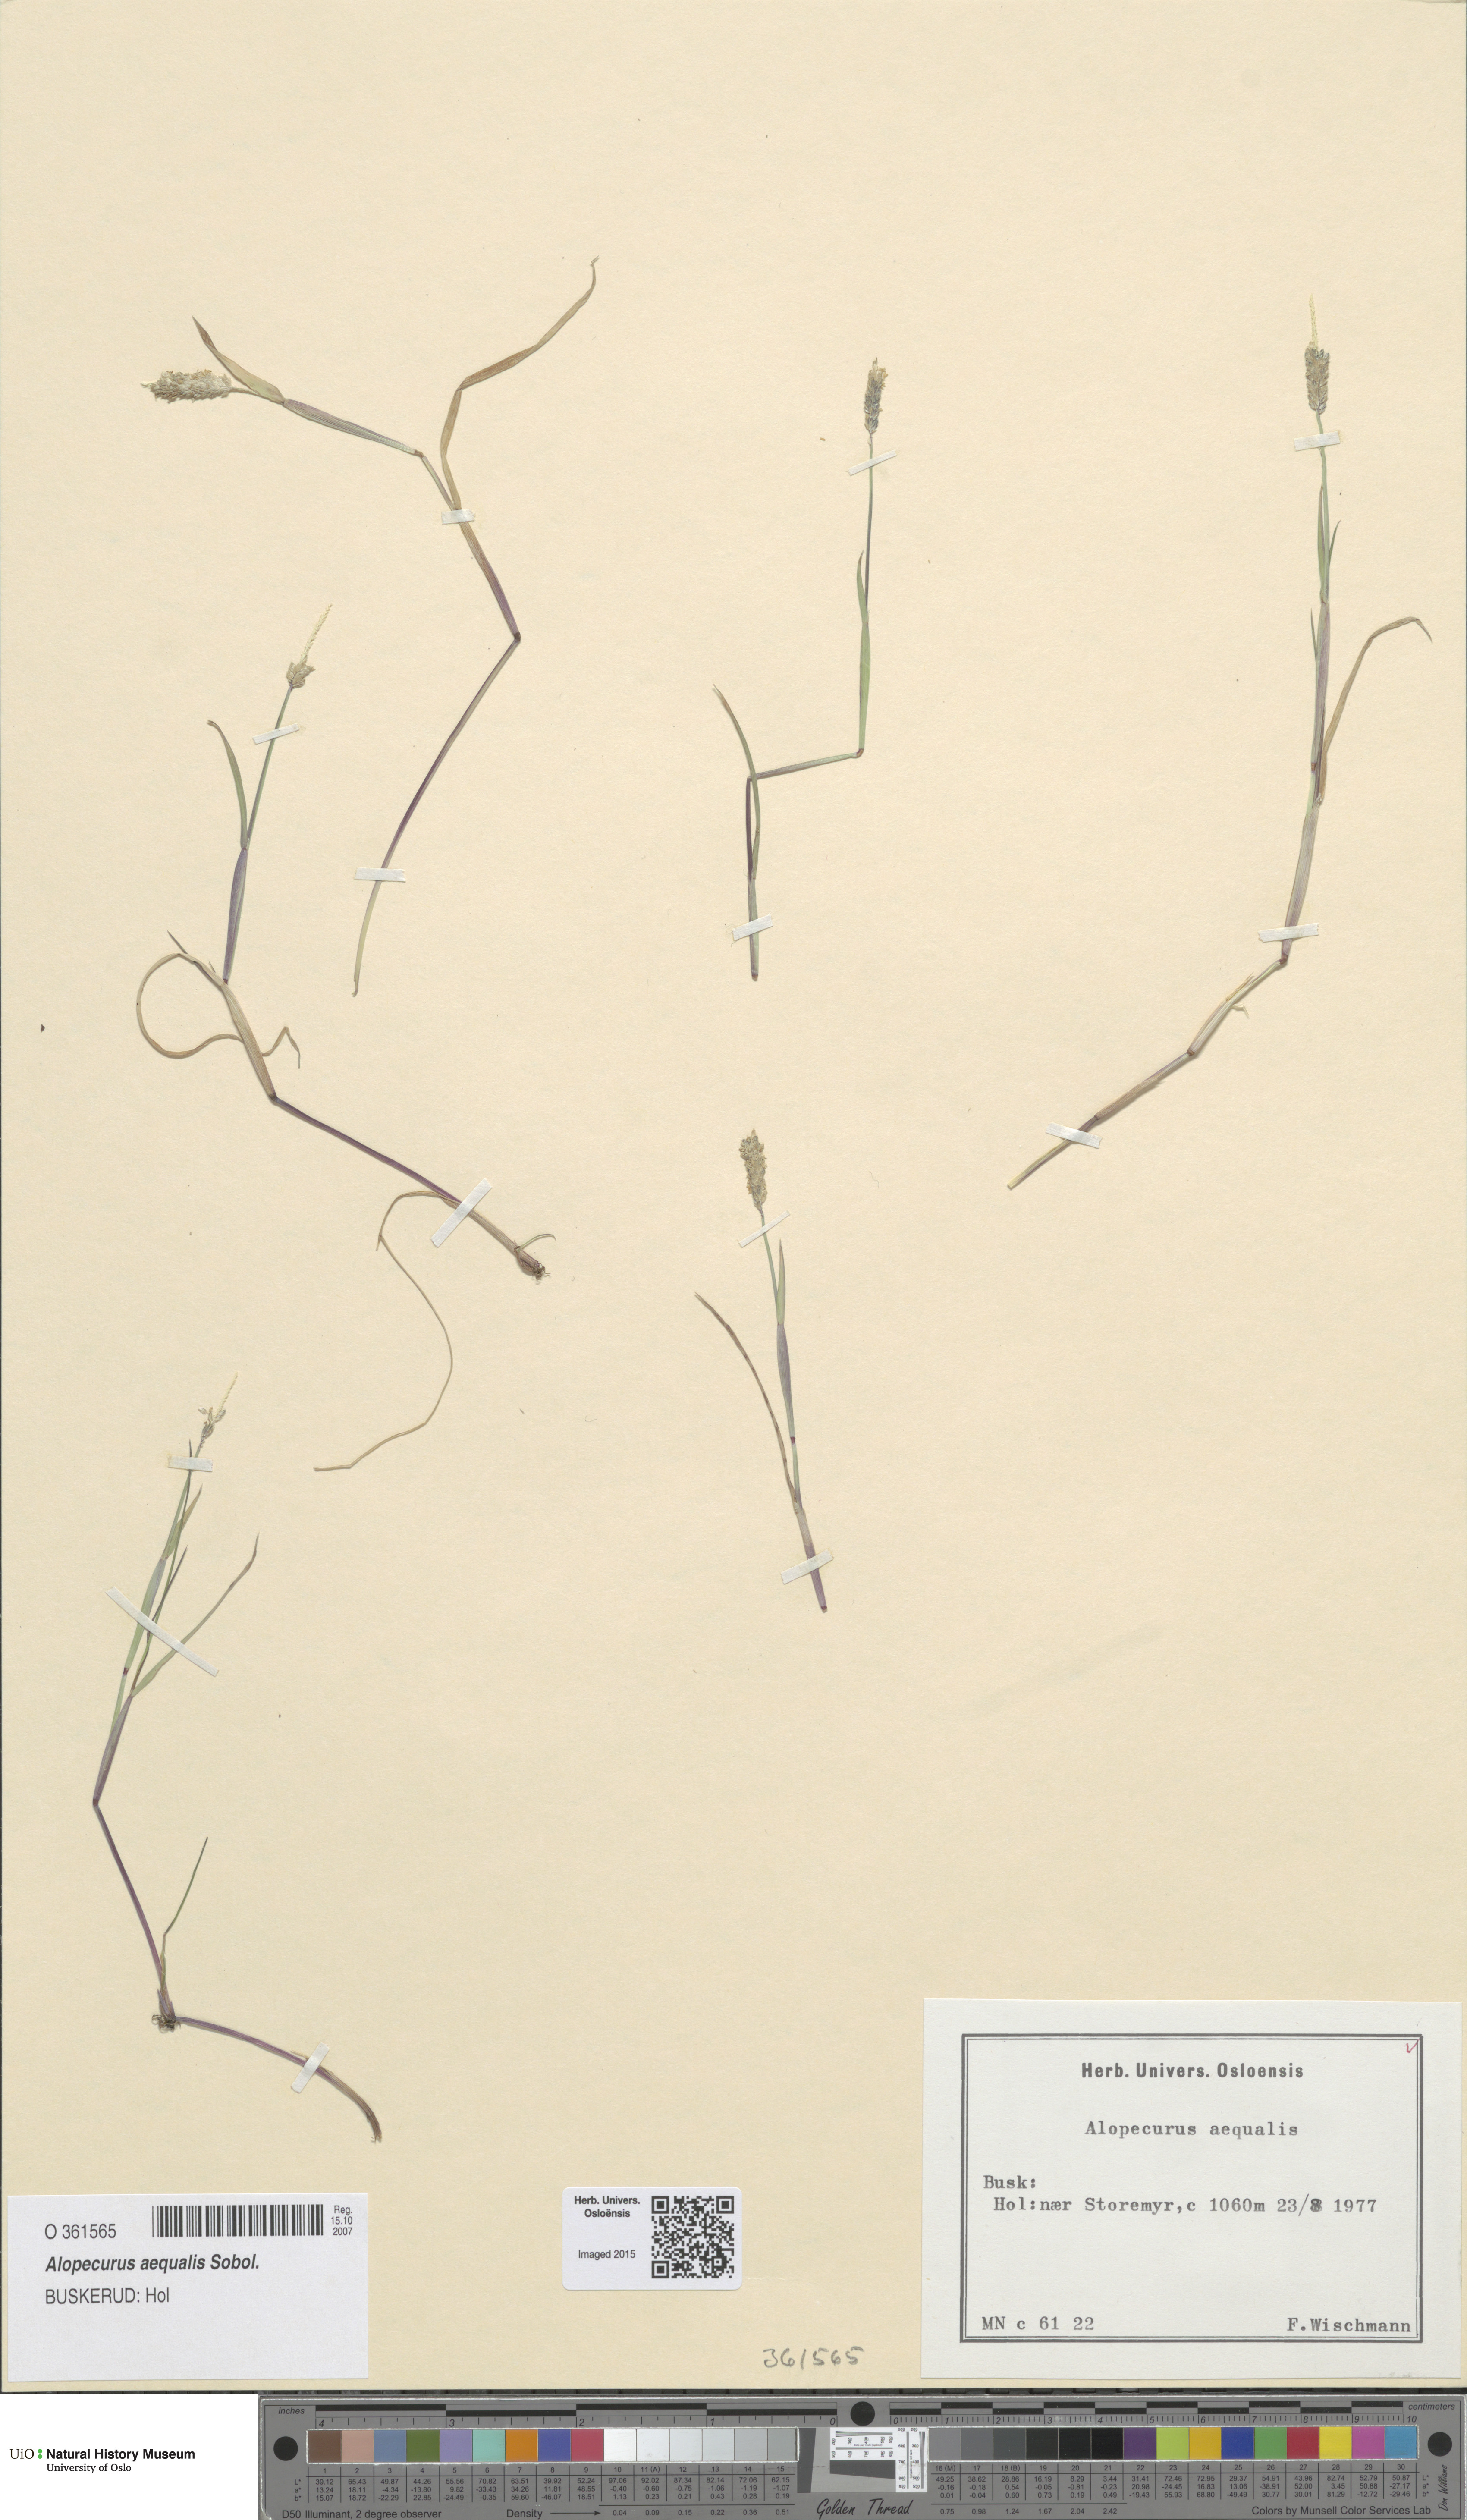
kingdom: Plantae
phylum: Tracheophyta
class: Liliopsida
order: Poales
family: Poaceae
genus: Alopecurus
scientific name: Alopecurus aequalis
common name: Orange foxtail
